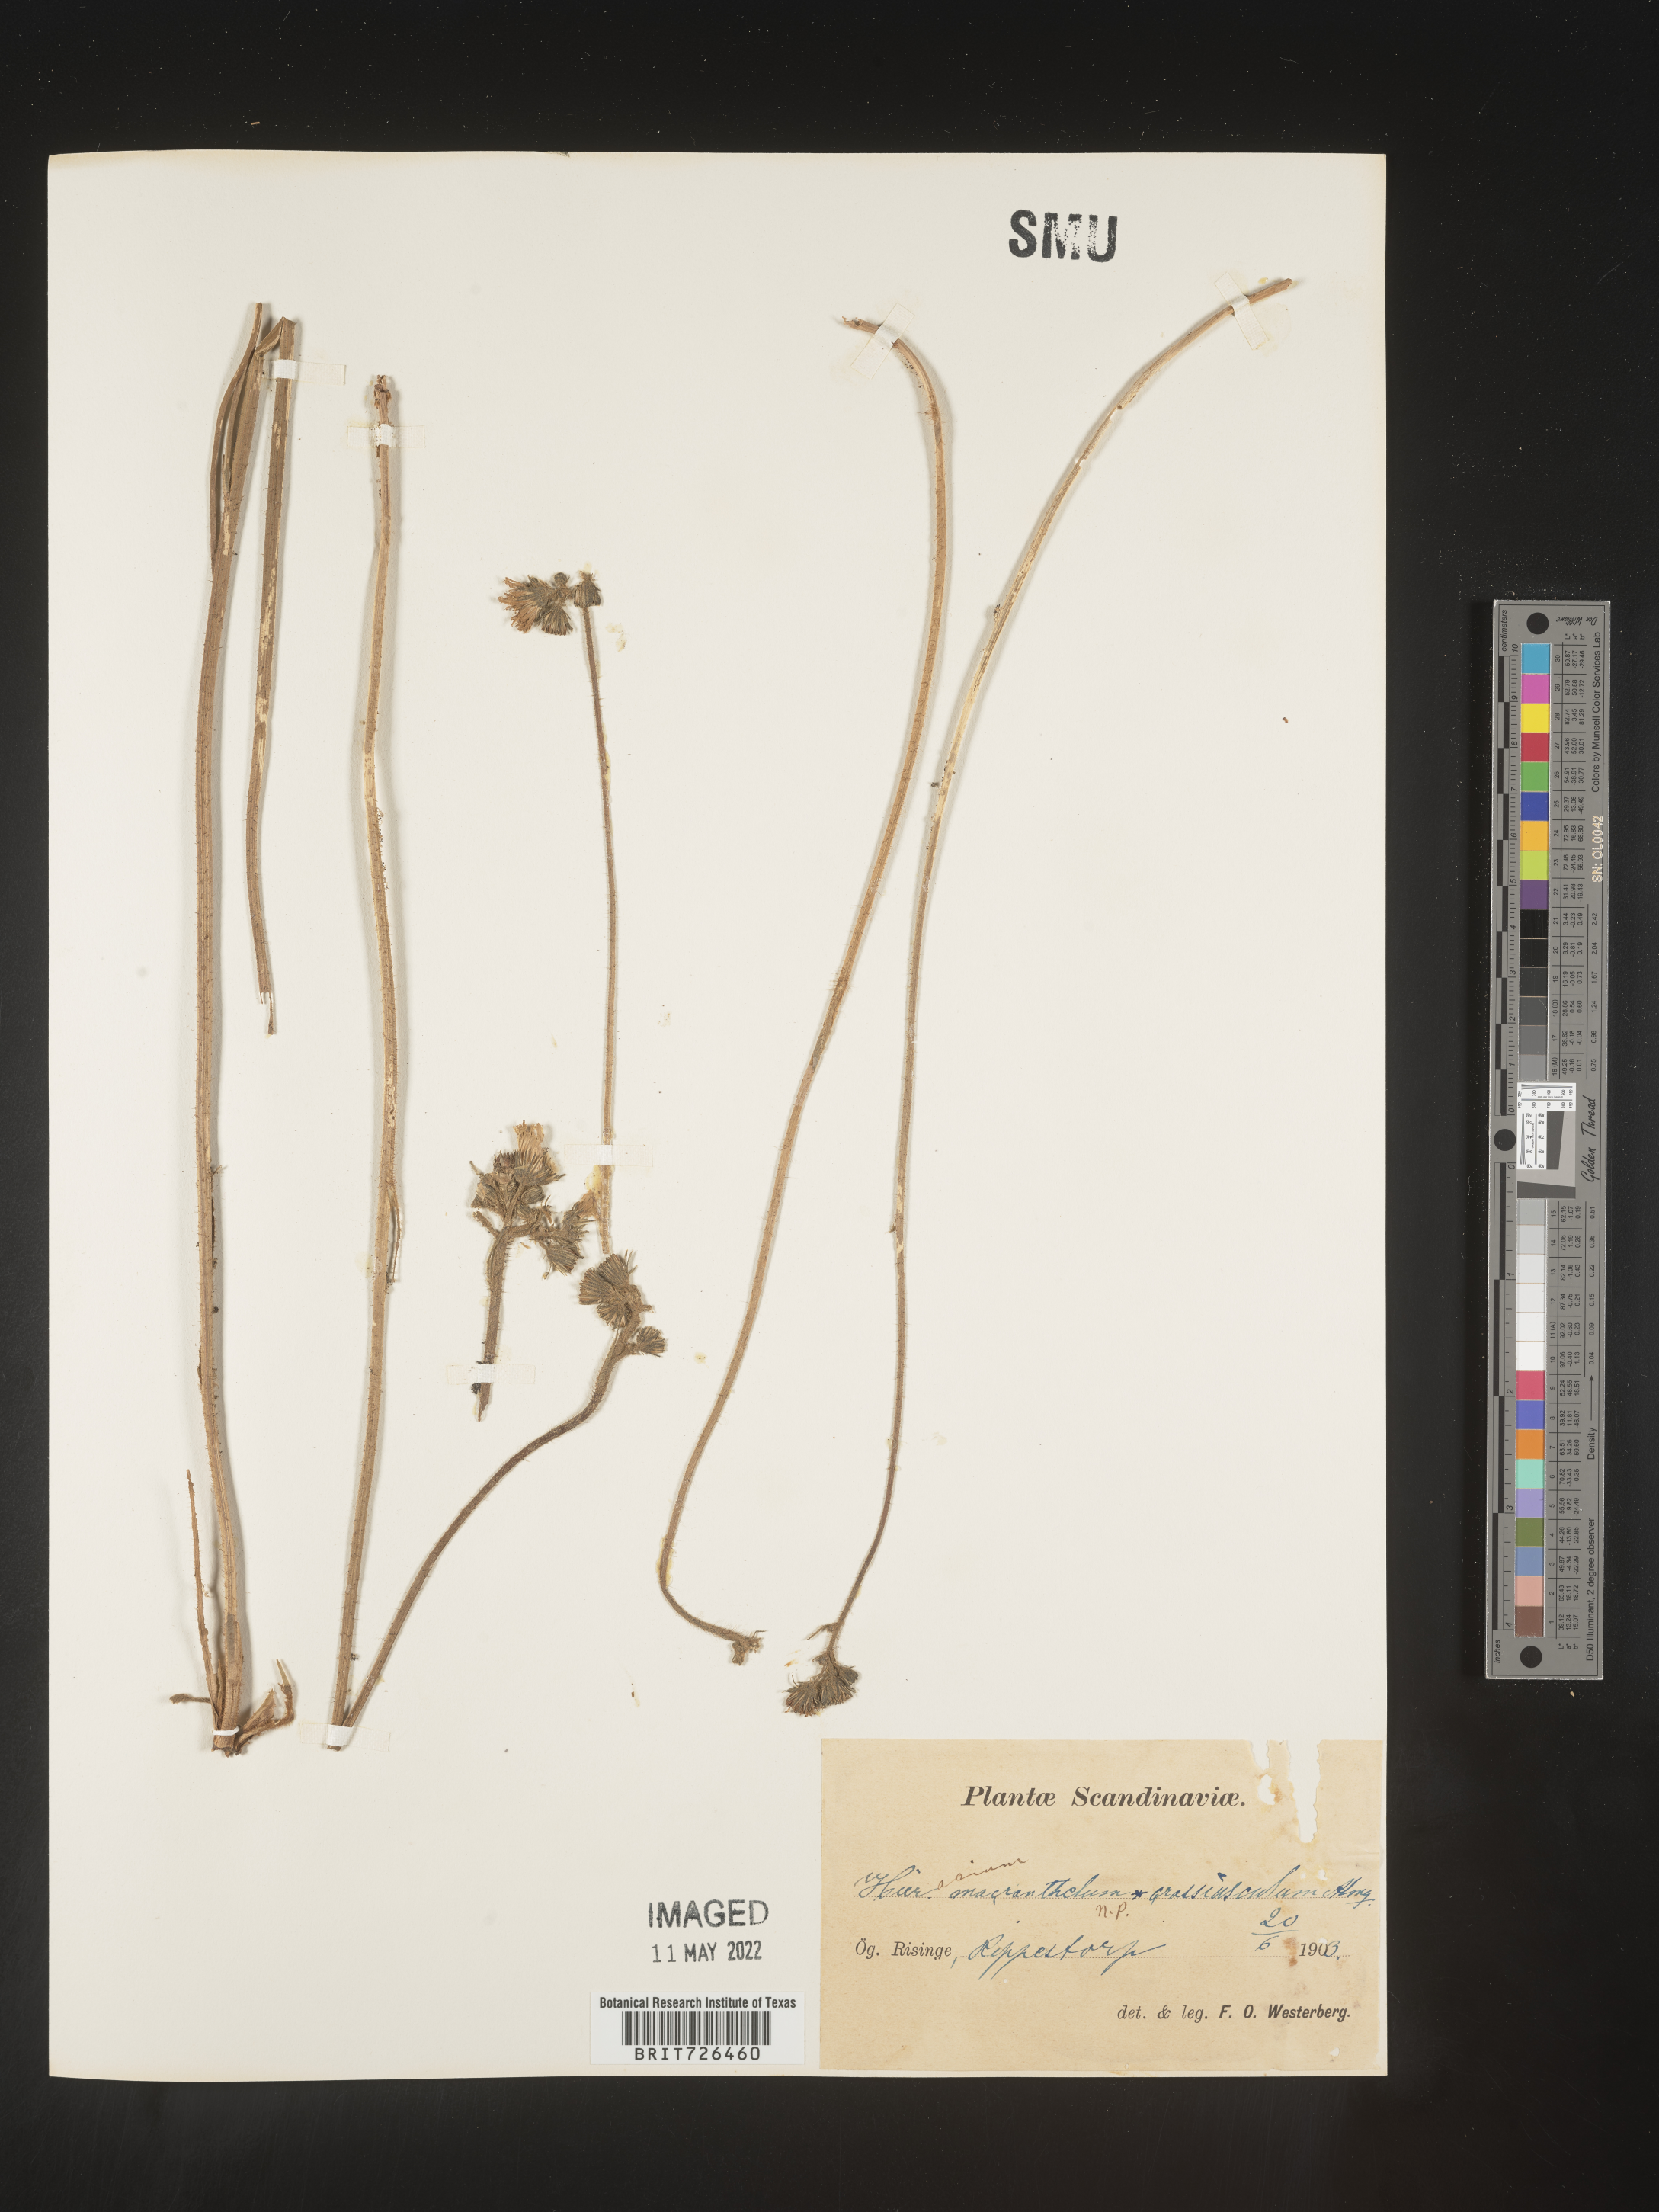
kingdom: Plantae
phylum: Tracheophyta
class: Magnoliopsida
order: Asterales
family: Asteraceae
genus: Hieracium
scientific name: Hieracium
